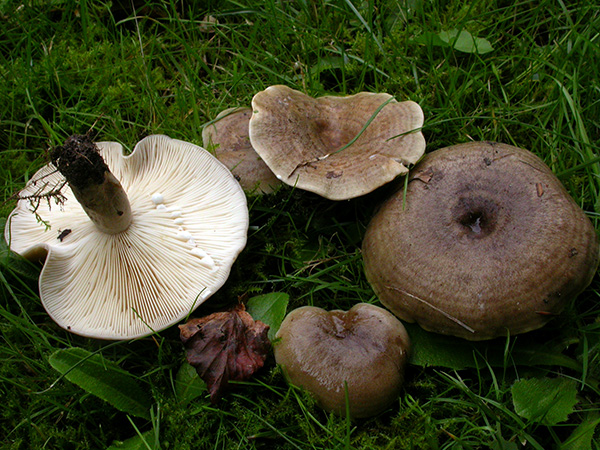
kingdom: Fungi
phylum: Basidiomycota
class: Agaricomycetes
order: Russulales
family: Russulaceae
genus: Lactarius
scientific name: Lactarius fluens
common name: lysrandet mælkehat
